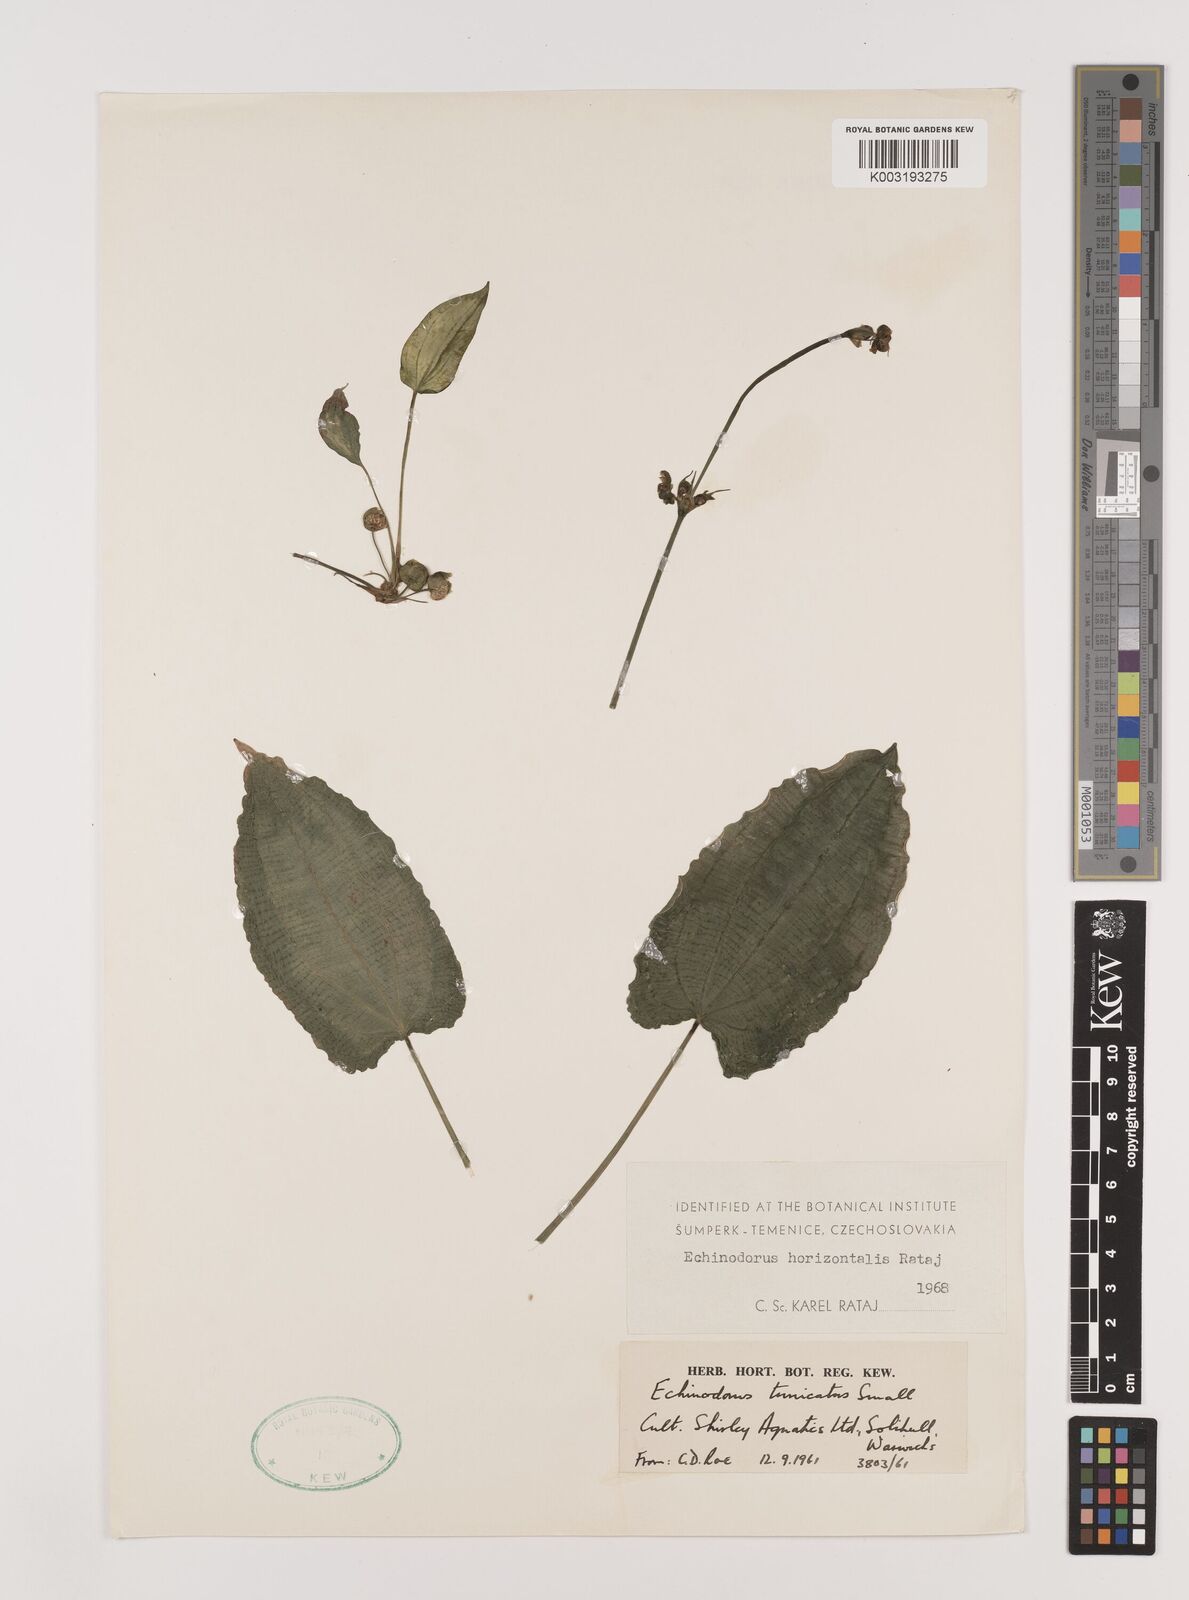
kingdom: Plantae
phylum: Tracheophyta
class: Liliopsida
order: Alismatales
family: Alismataceae
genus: Aquarius
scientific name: Aquarius horizontalis
